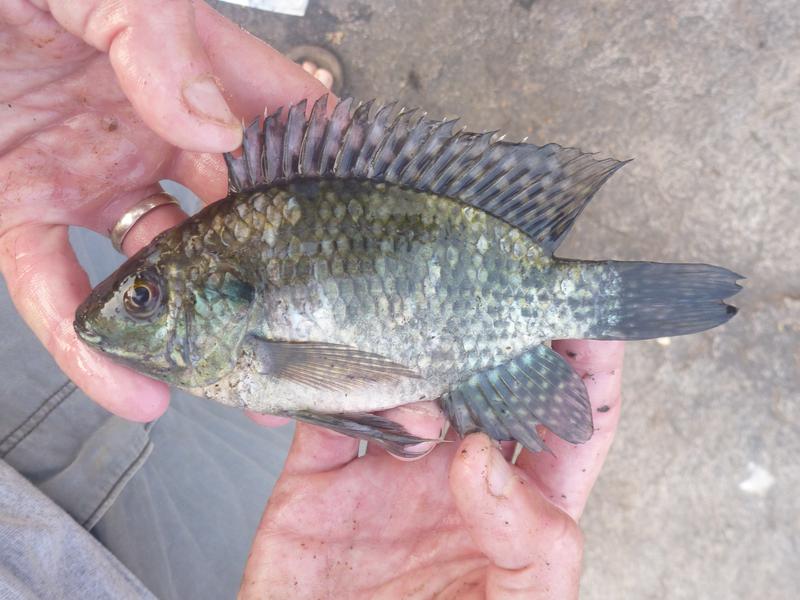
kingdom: Animalia
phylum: Chordata
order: Perciformes
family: Cichlidae
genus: Oreochromis
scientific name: Oreochromis leucostictus
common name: Blue spotted tilapia
